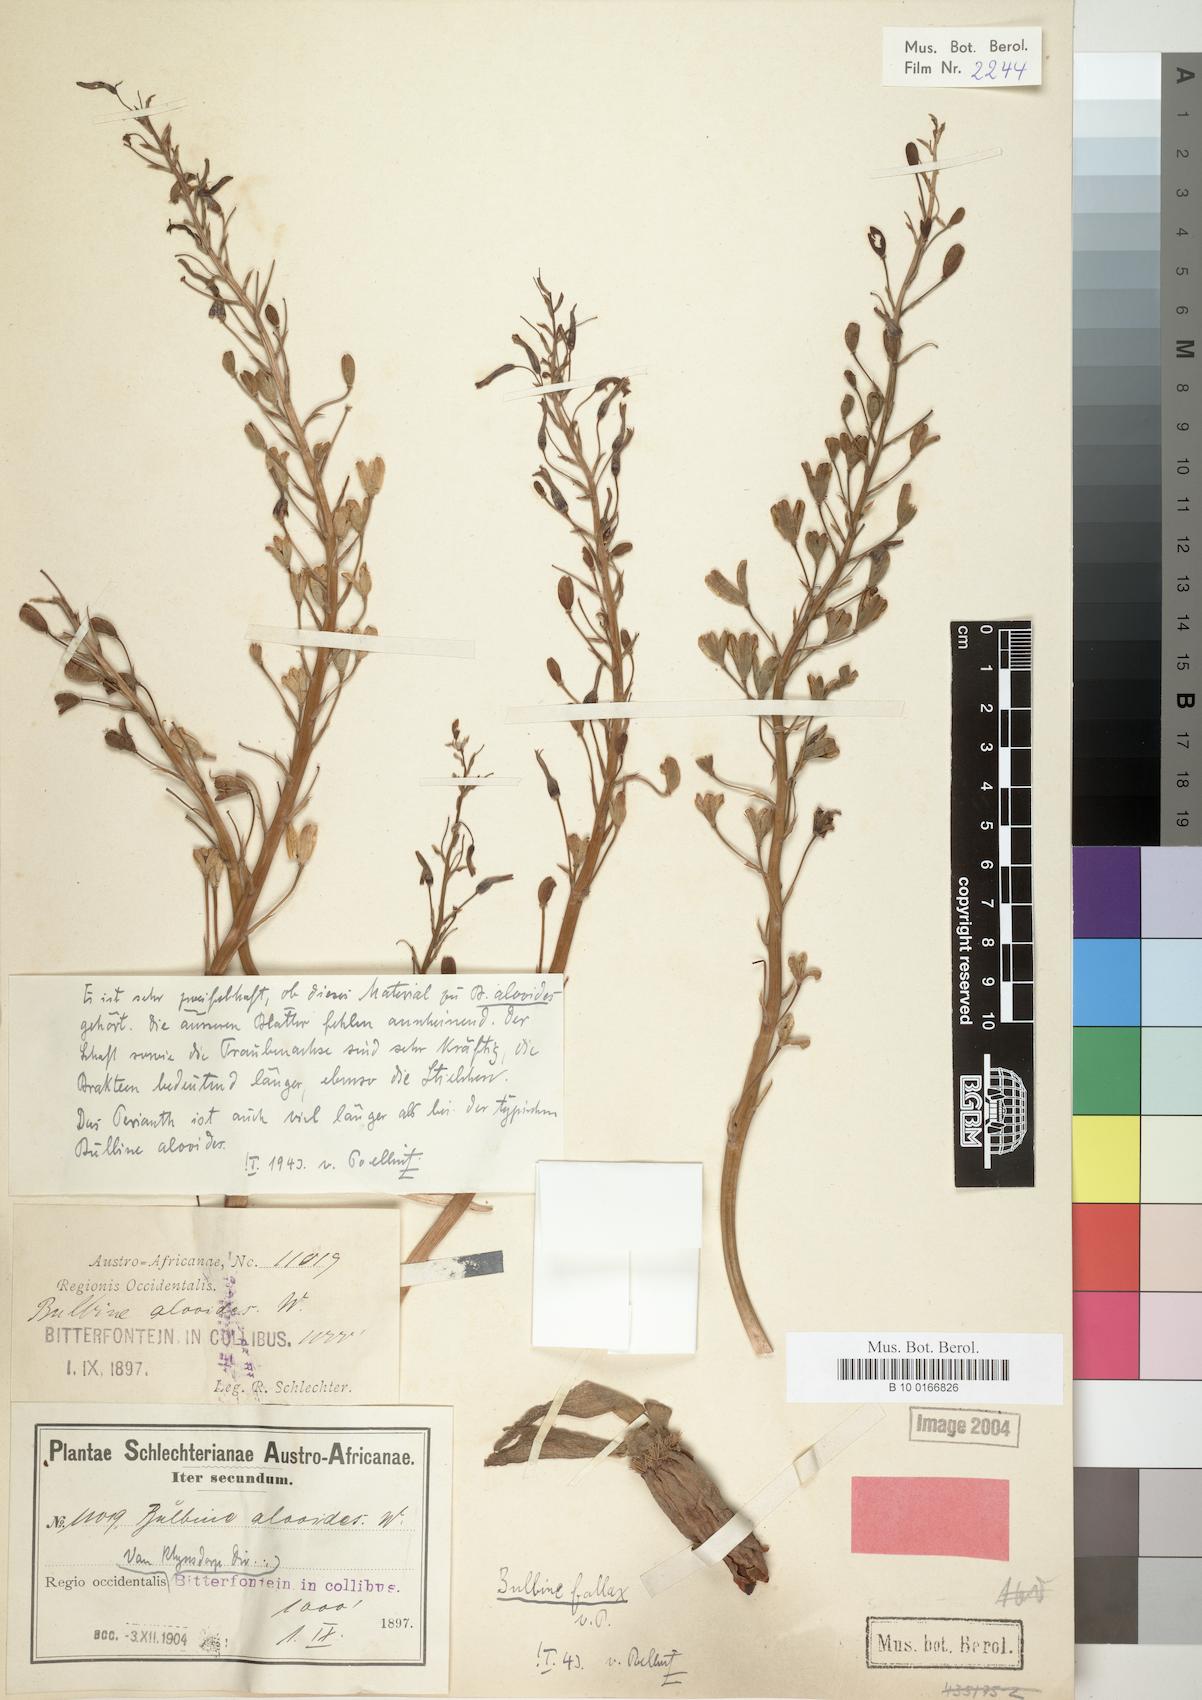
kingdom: Plantae
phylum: Tracheophyta
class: Liliopsida
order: Asparagales
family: Asphodelaceae
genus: Bulbine
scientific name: Bulbine fallax
